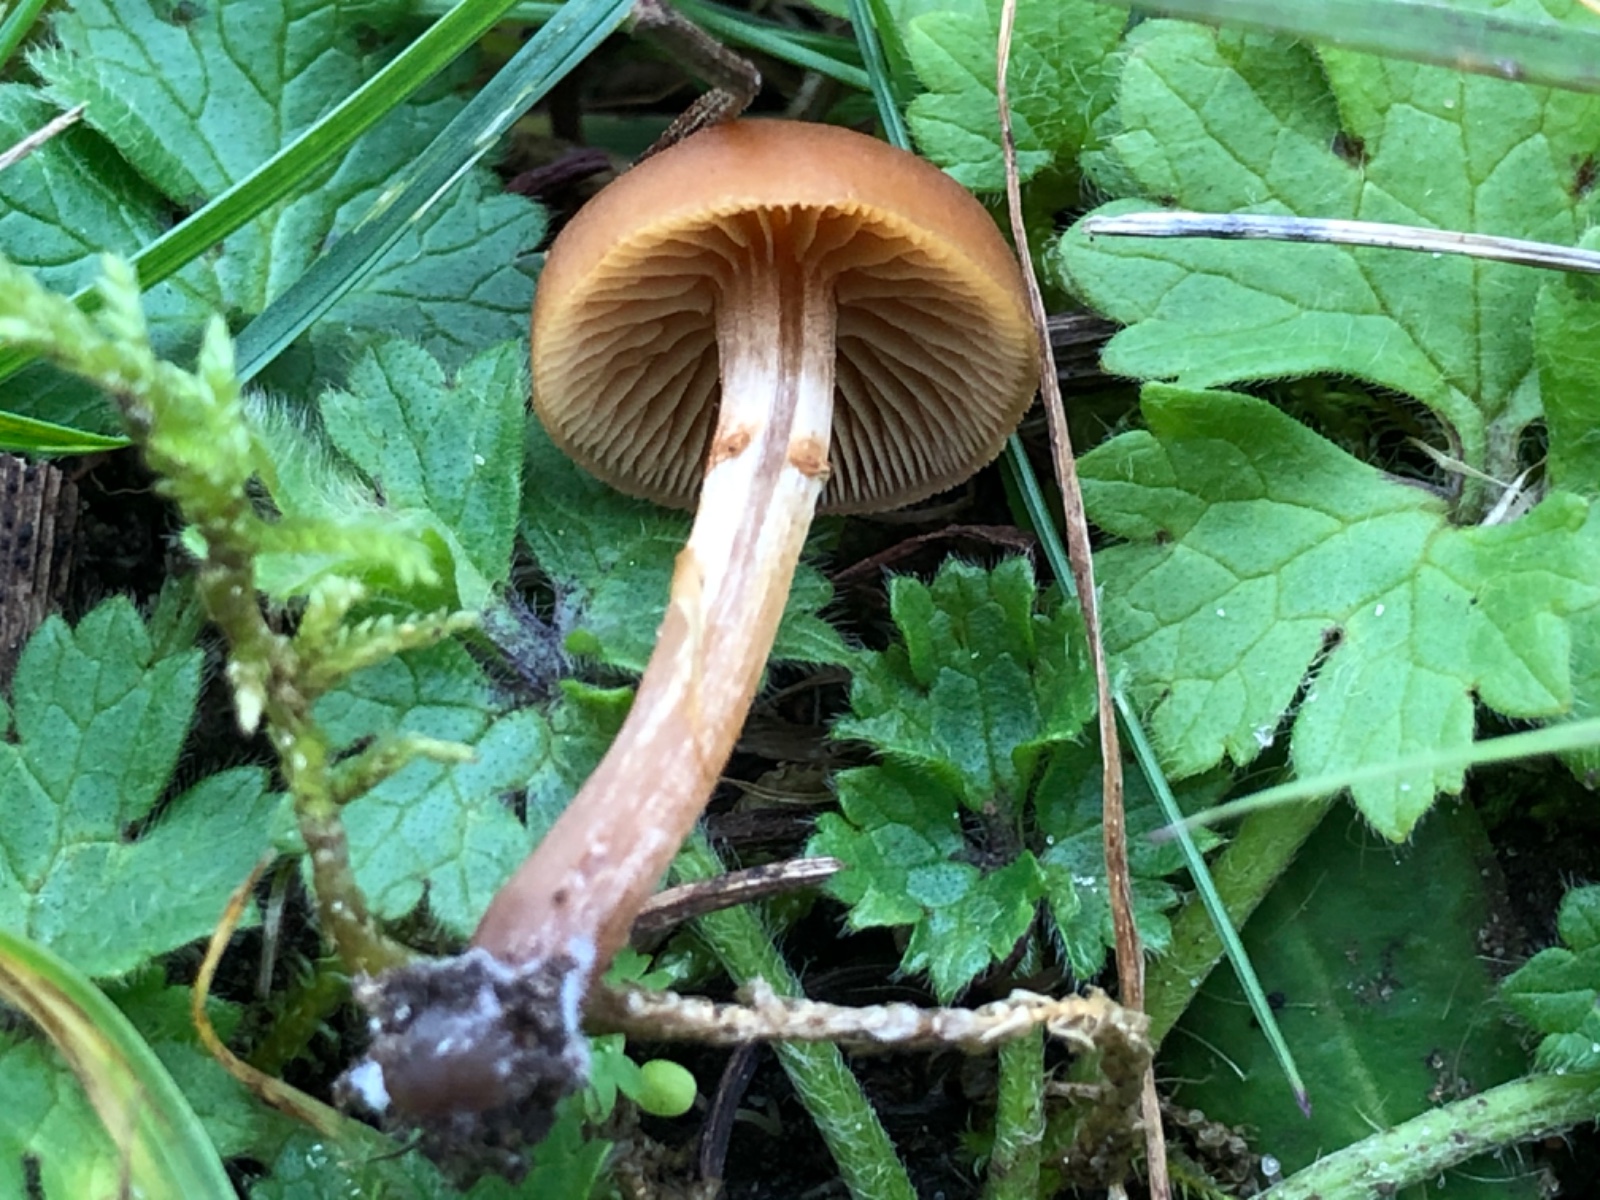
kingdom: Fungi
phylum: Basidiomycota
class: Agaricomycetes
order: Agaricales
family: Hymenogastraceae
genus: Galerina
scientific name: Galerina
